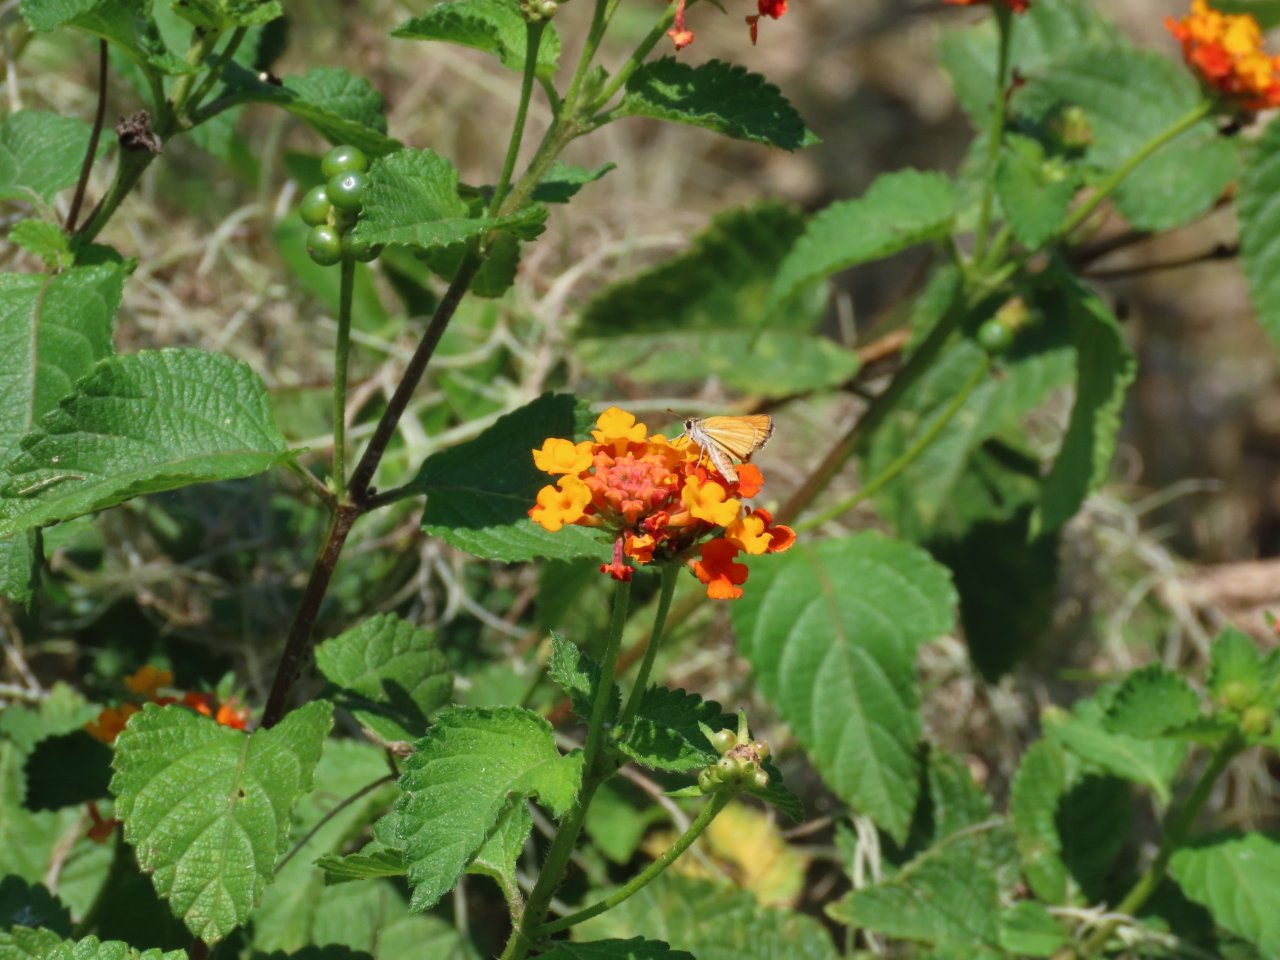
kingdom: Animalia
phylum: Arthropoda
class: Insecta
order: Lepidoptera
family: Hesperiidae
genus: Copaeodes
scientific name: Copaeodes minima
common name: Southern Skipperling
